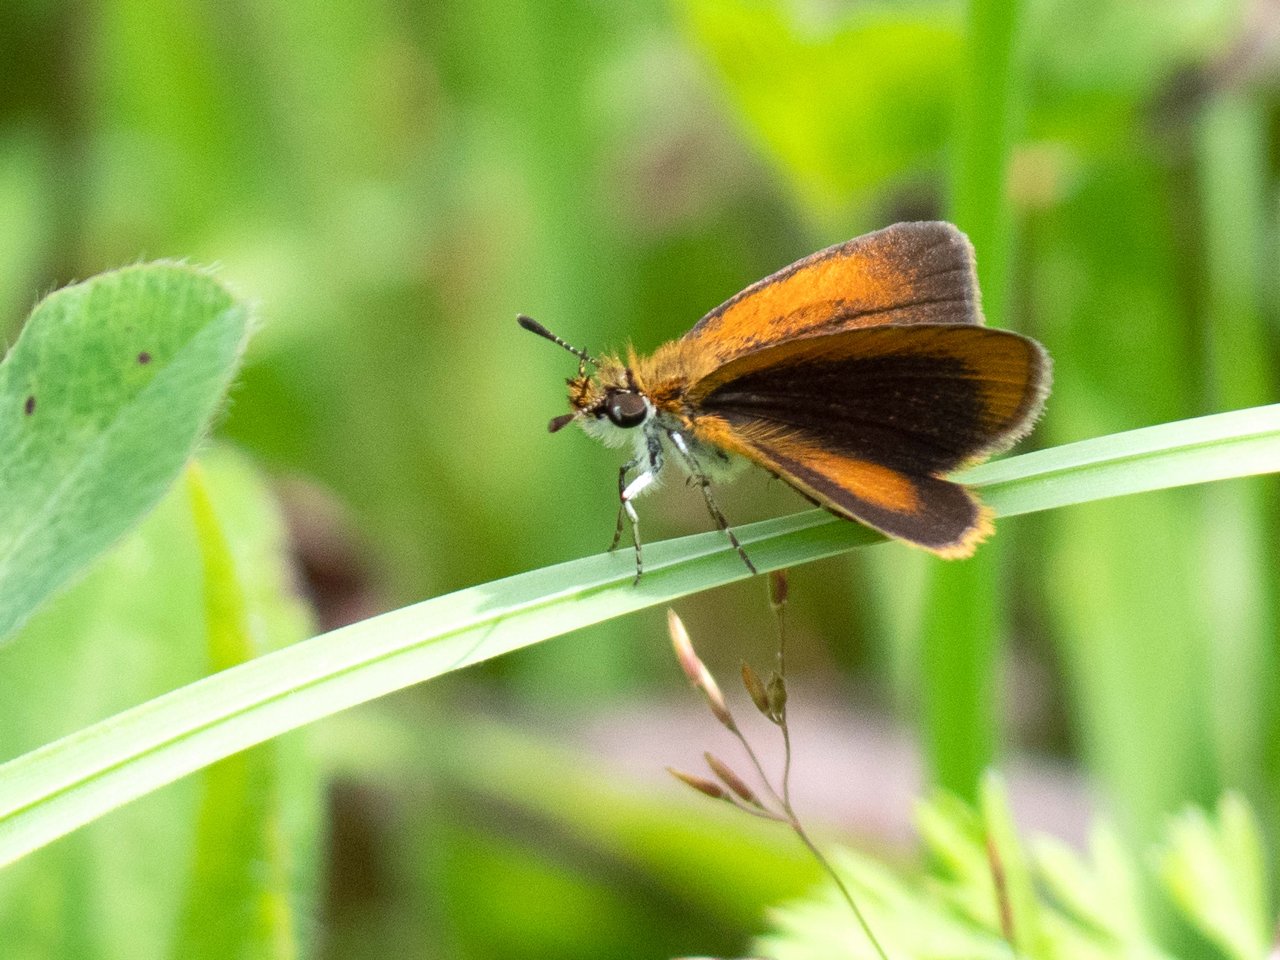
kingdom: Animalia
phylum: Arthropoda
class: Insecta
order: Lepidoptera
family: Hesperiidae
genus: Ancyloxypha
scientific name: Ancyloxypha numitor
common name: Least Skipper
